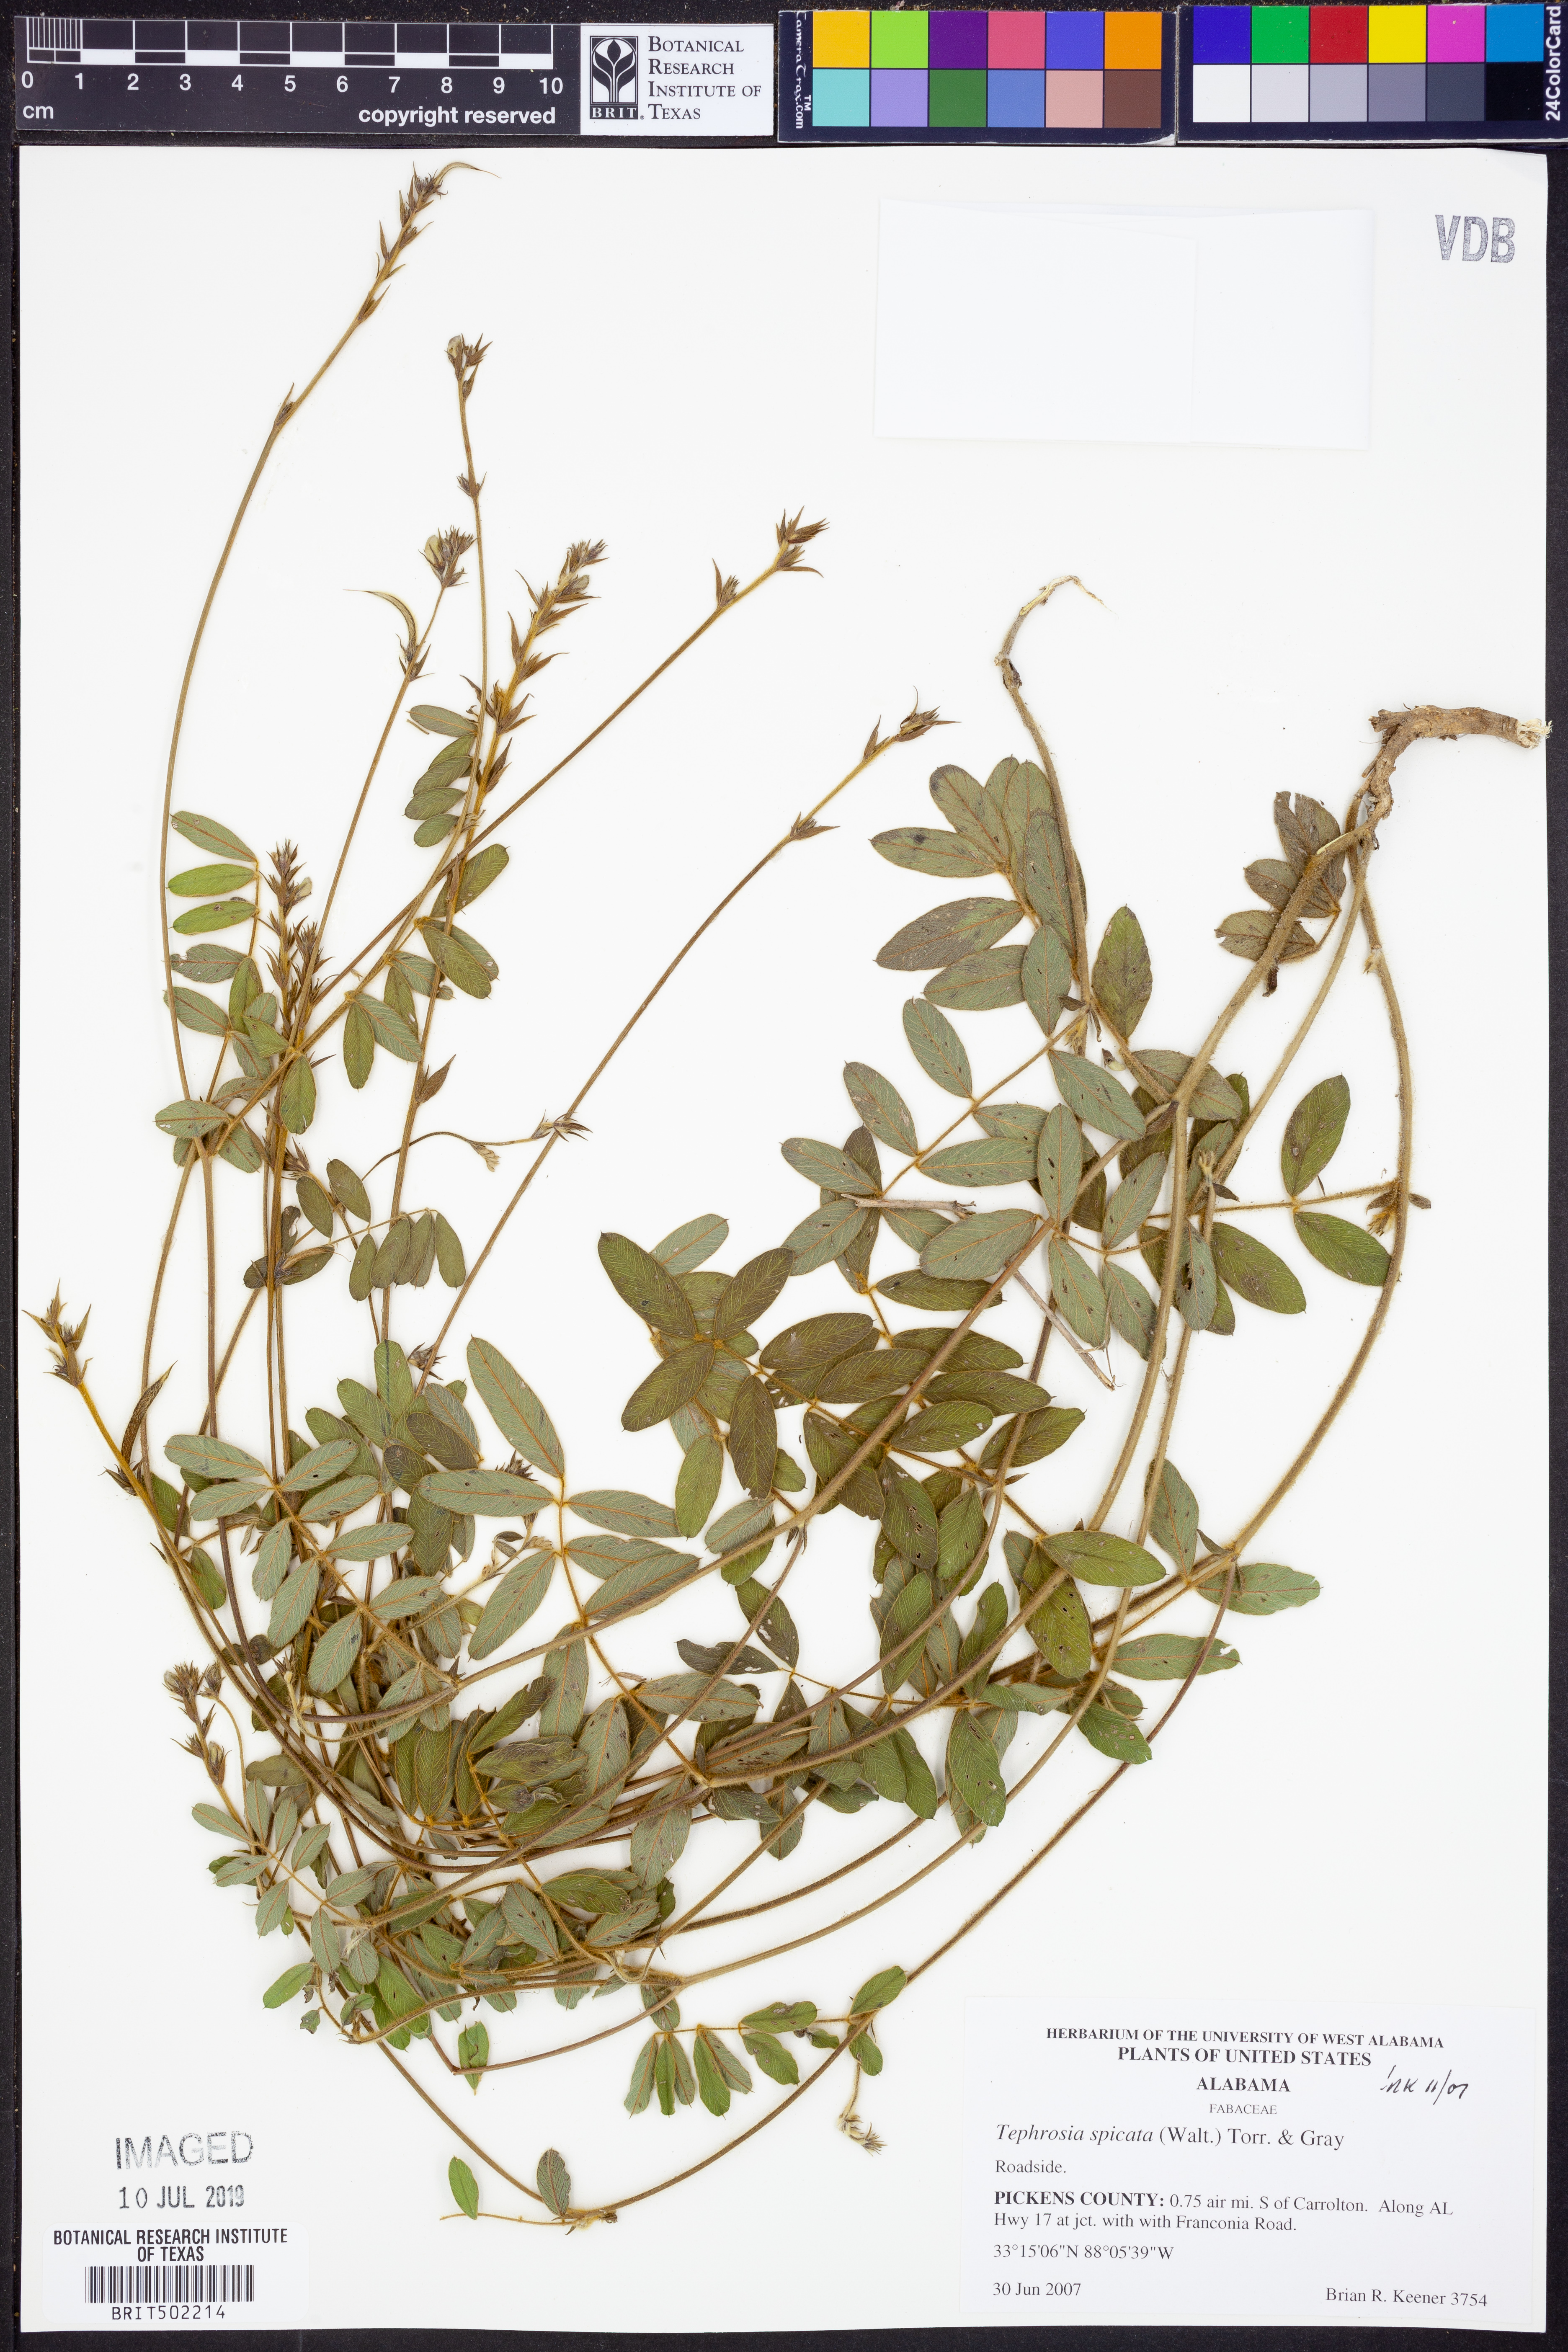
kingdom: Plantae
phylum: Tracheophyta
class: Magnoliopsida
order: Fabales
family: Fabaceae
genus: Tephrosia
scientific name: Tephrosia spicata
